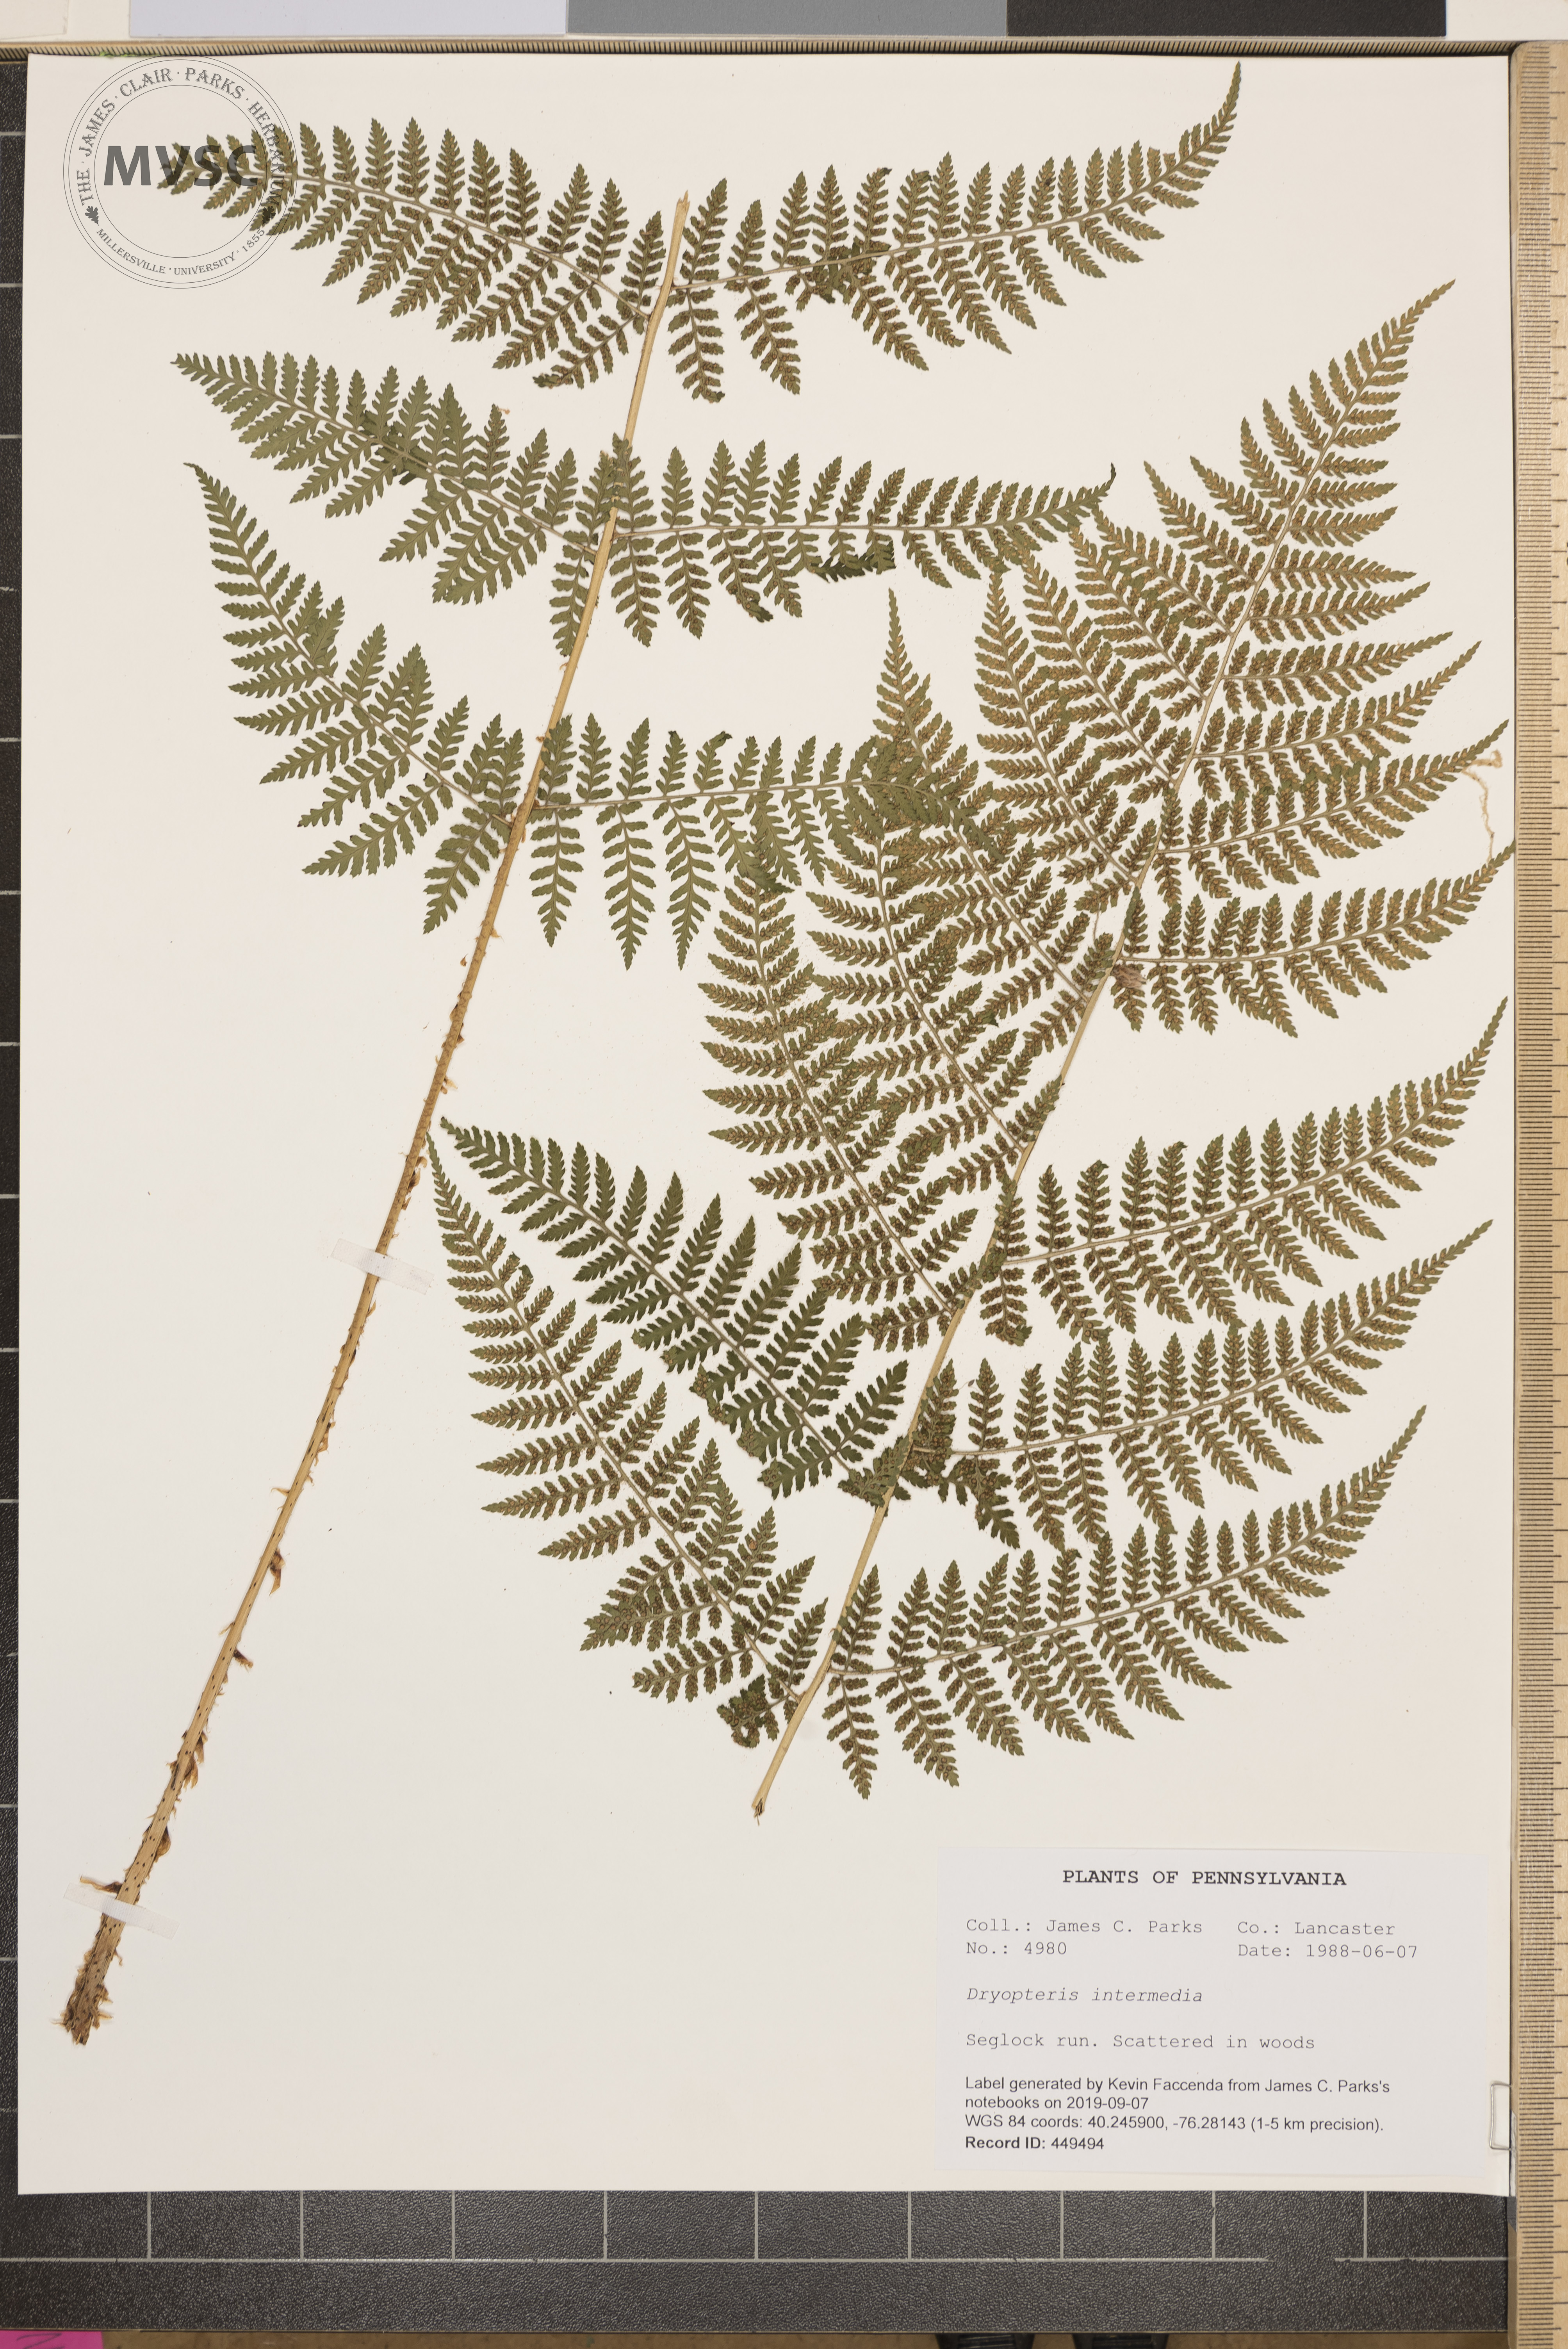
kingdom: Plantae
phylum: Tracheophyta
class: Polypodiopsida
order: Polypodiales
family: Dryopteridaceae
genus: Dryopteris
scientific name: Dryopteris intermedia
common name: Evergreen wood fern
